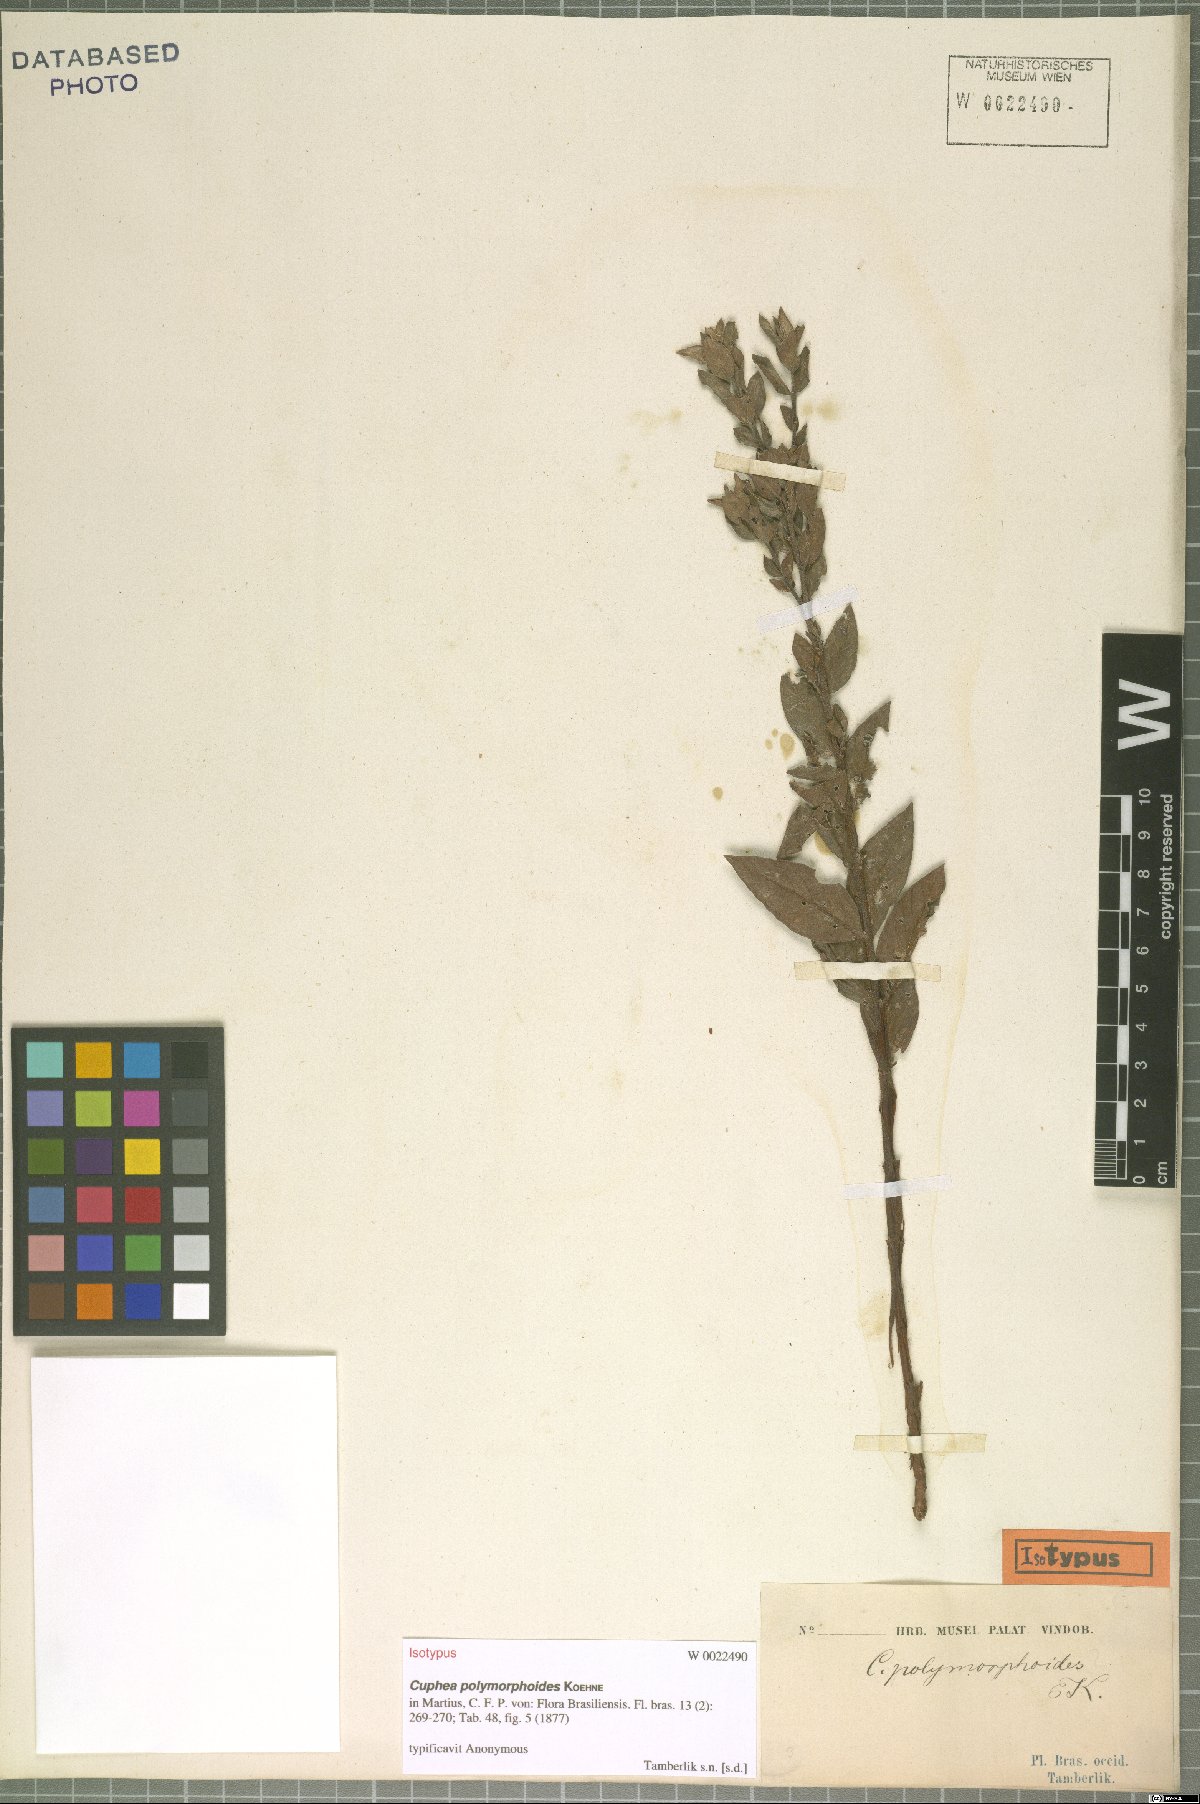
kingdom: Plantae
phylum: Tracheophyta
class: Magnoliopsida
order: Myrtales
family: Lythraceae
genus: Cuphea
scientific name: Cuphea spermacoce
